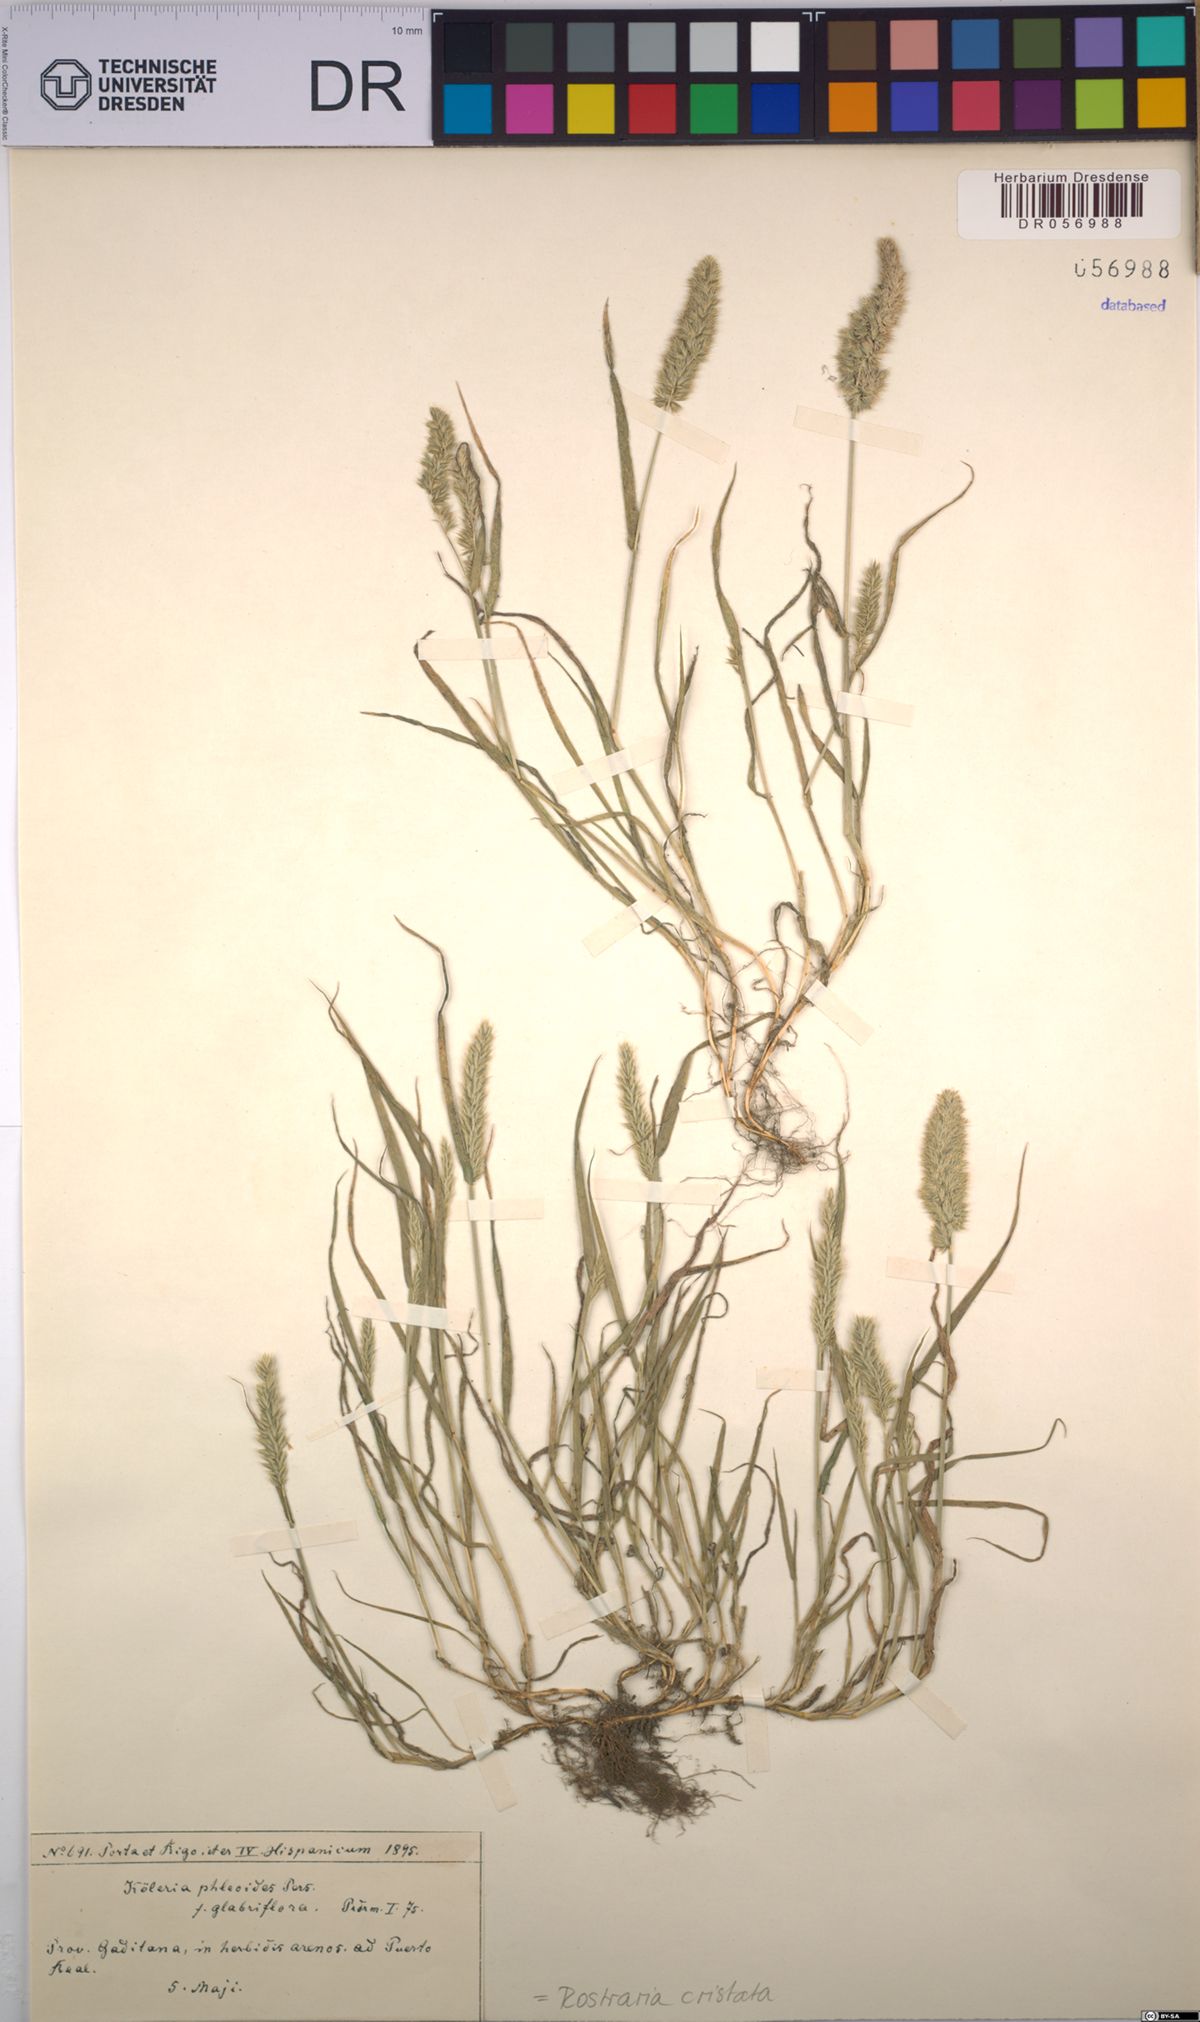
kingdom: Plantae
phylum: Tracheophyta
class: Liliopsida
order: Poales
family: Poaceae
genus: Rostraria
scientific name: Rostraria cristata
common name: Mediterranean hair-grass
